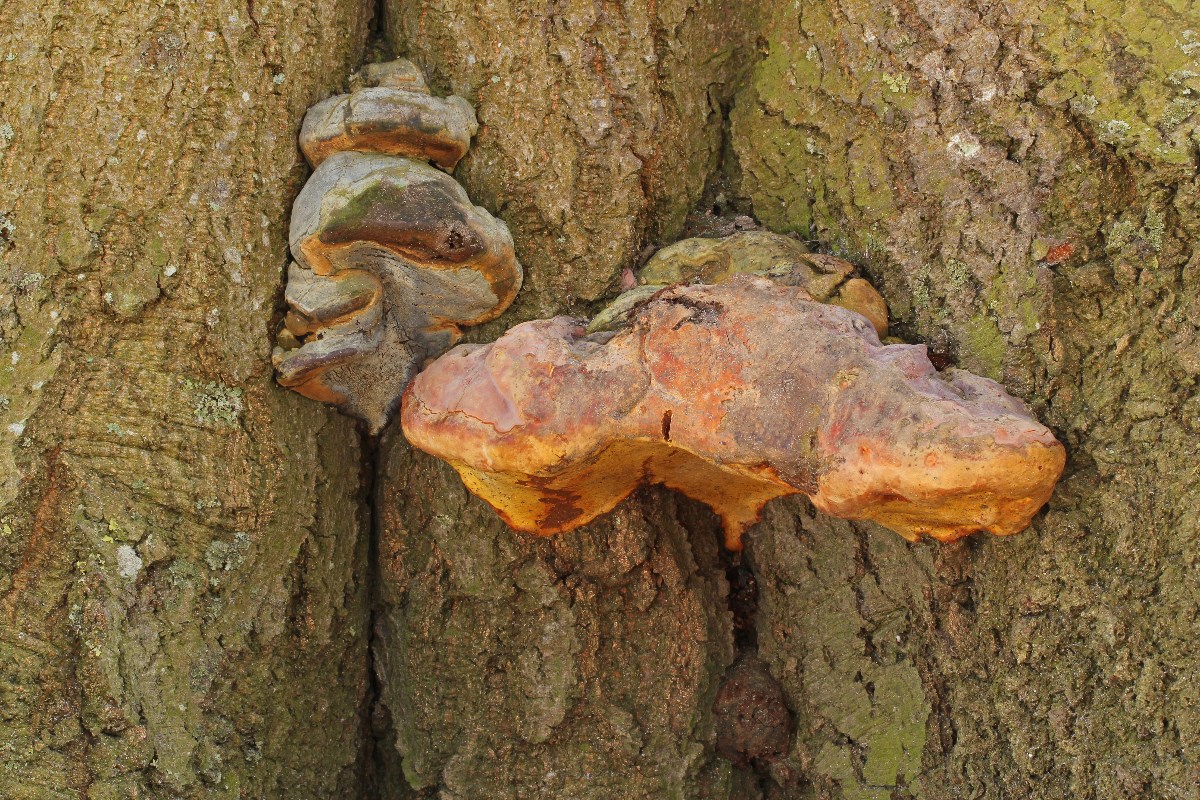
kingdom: Fungi
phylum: Basidiomycota
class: Agaricomycetes
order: Polyporales
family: Polyporaceae
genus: Ganoderma
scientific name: Ganoderma pfeifferi
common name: kobberrød lakporesvamp
